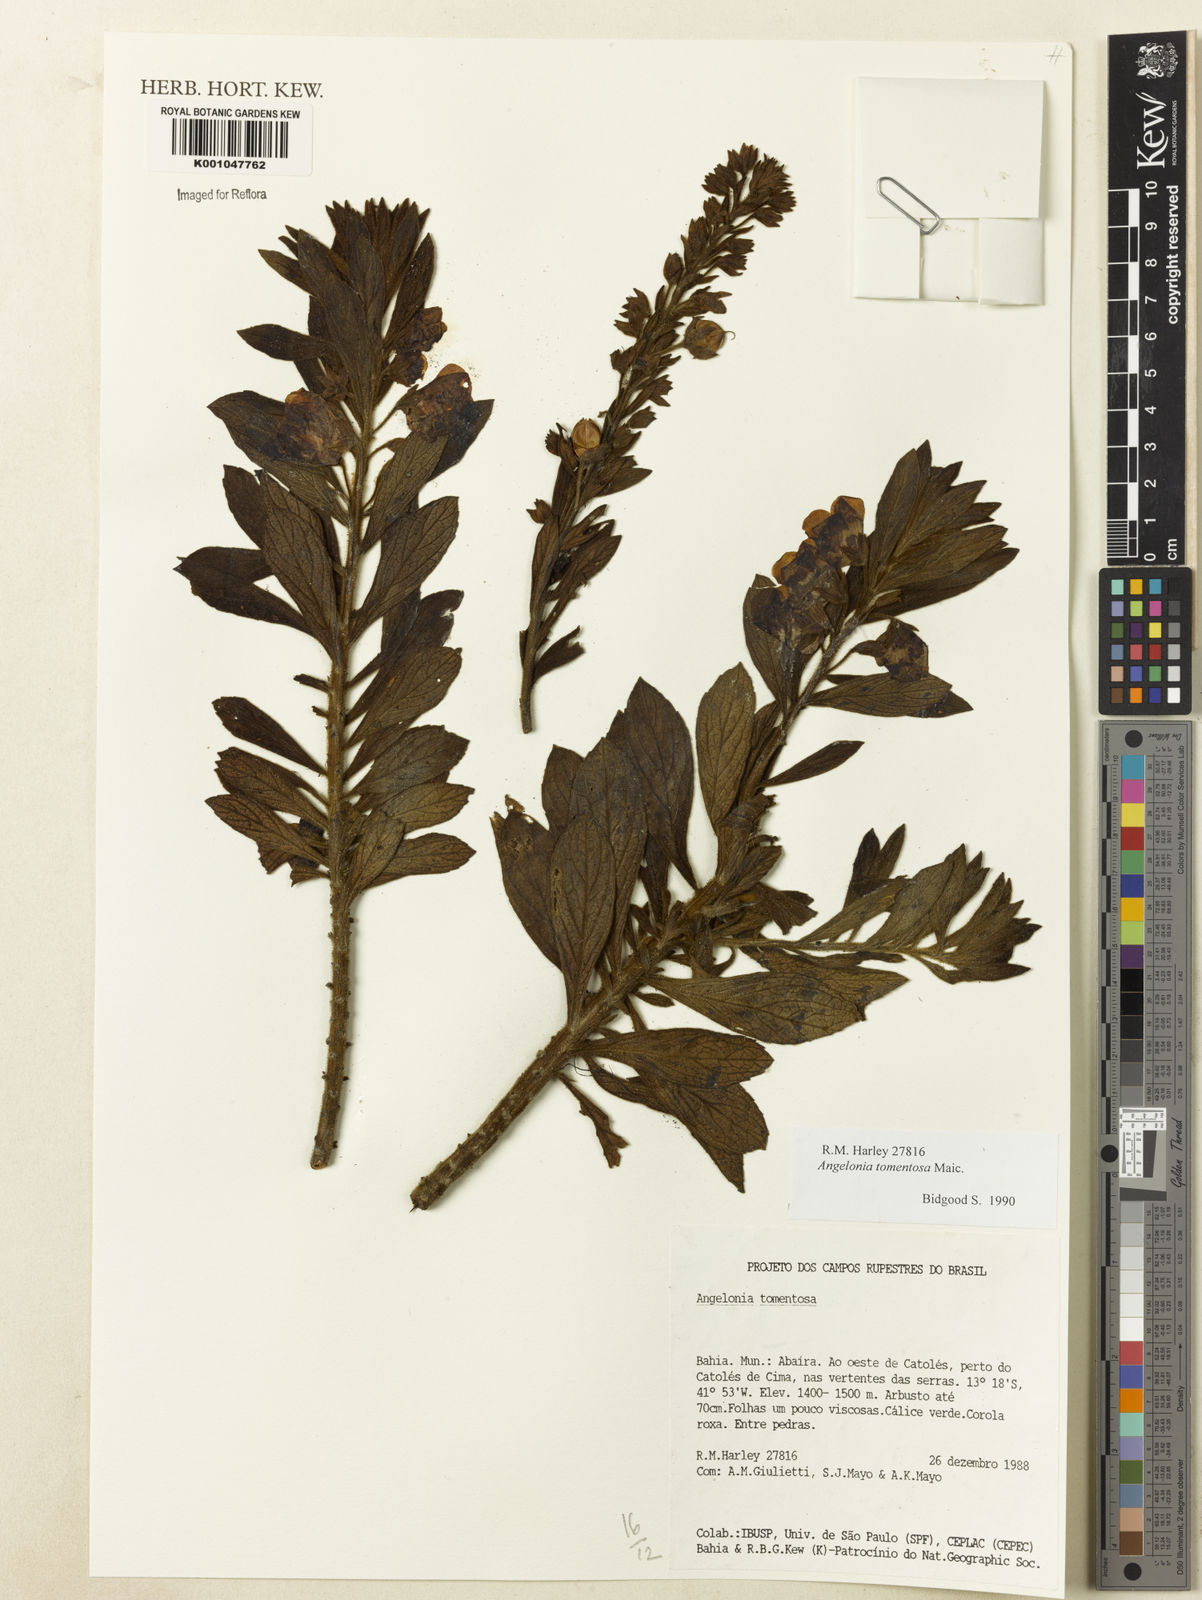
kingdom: Plantae
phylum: Tracheophyta
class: Magnoliopsida
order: Lamiales
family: Plantaginaceae
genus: Angelonia
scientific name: Angelonia tomentosa
